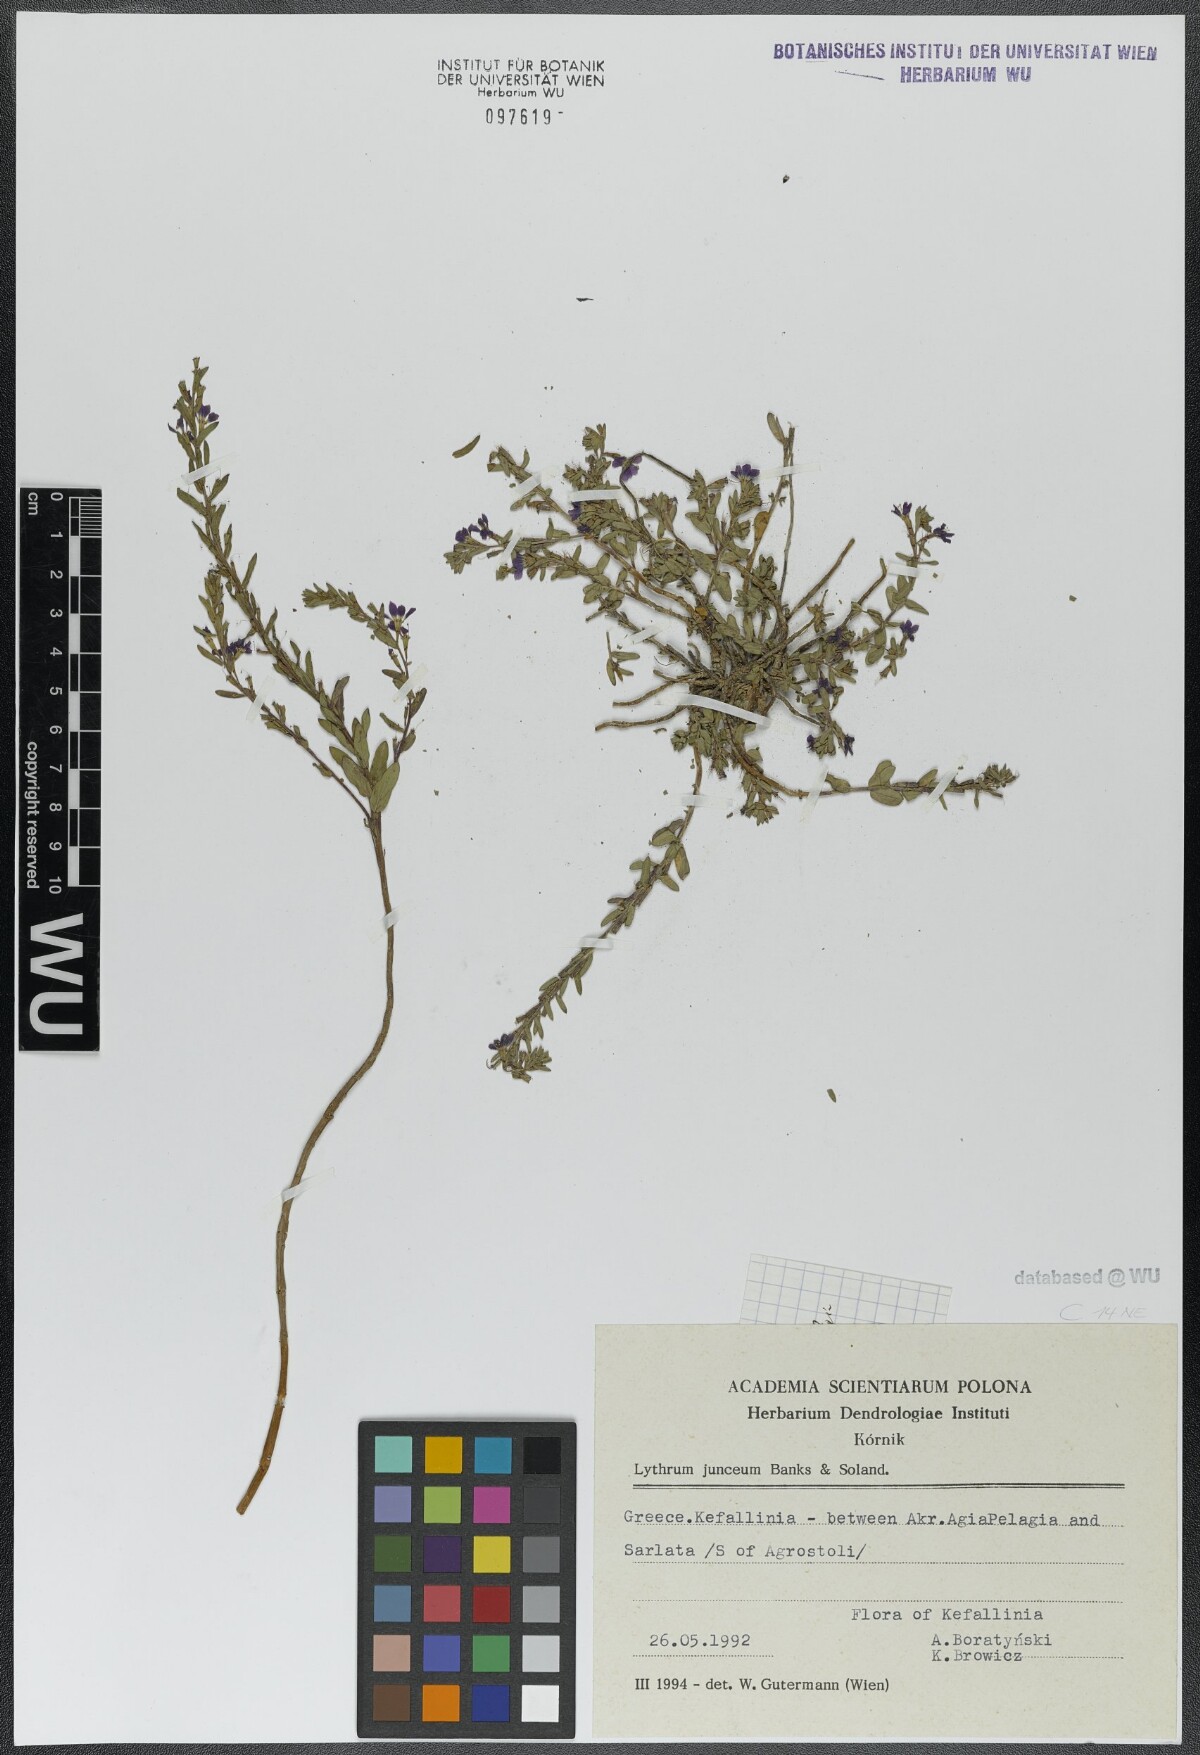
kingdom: Plantae
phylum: Tracheophyta
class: Magnoliopsida
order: Myrtales
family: Lythraceae
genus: Lythrum
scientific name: Lythrum junceum
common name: False grass-poly
